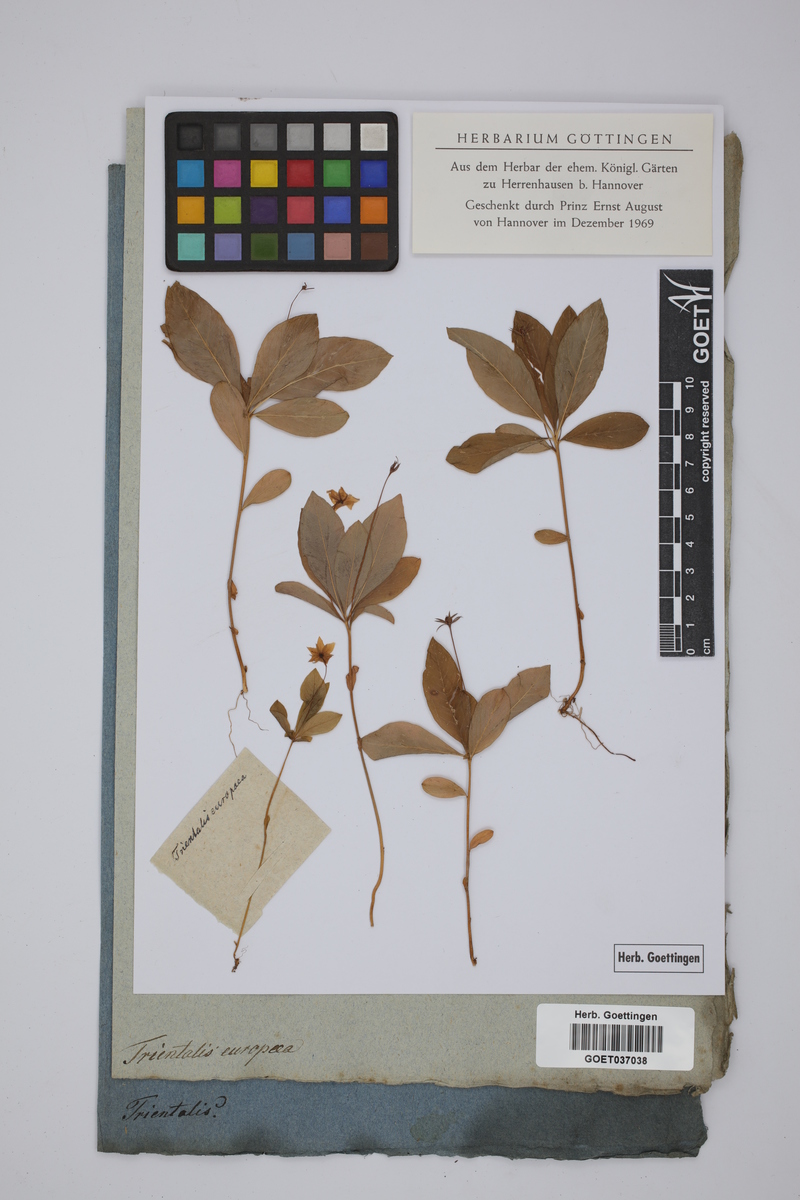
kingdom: Plantae
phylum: Tracheophyta
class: Magnoliopsida
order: Ericales
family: Primulaceae
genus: Lysimachia
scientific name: Lysimachia europaea
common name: Arctic starflower
